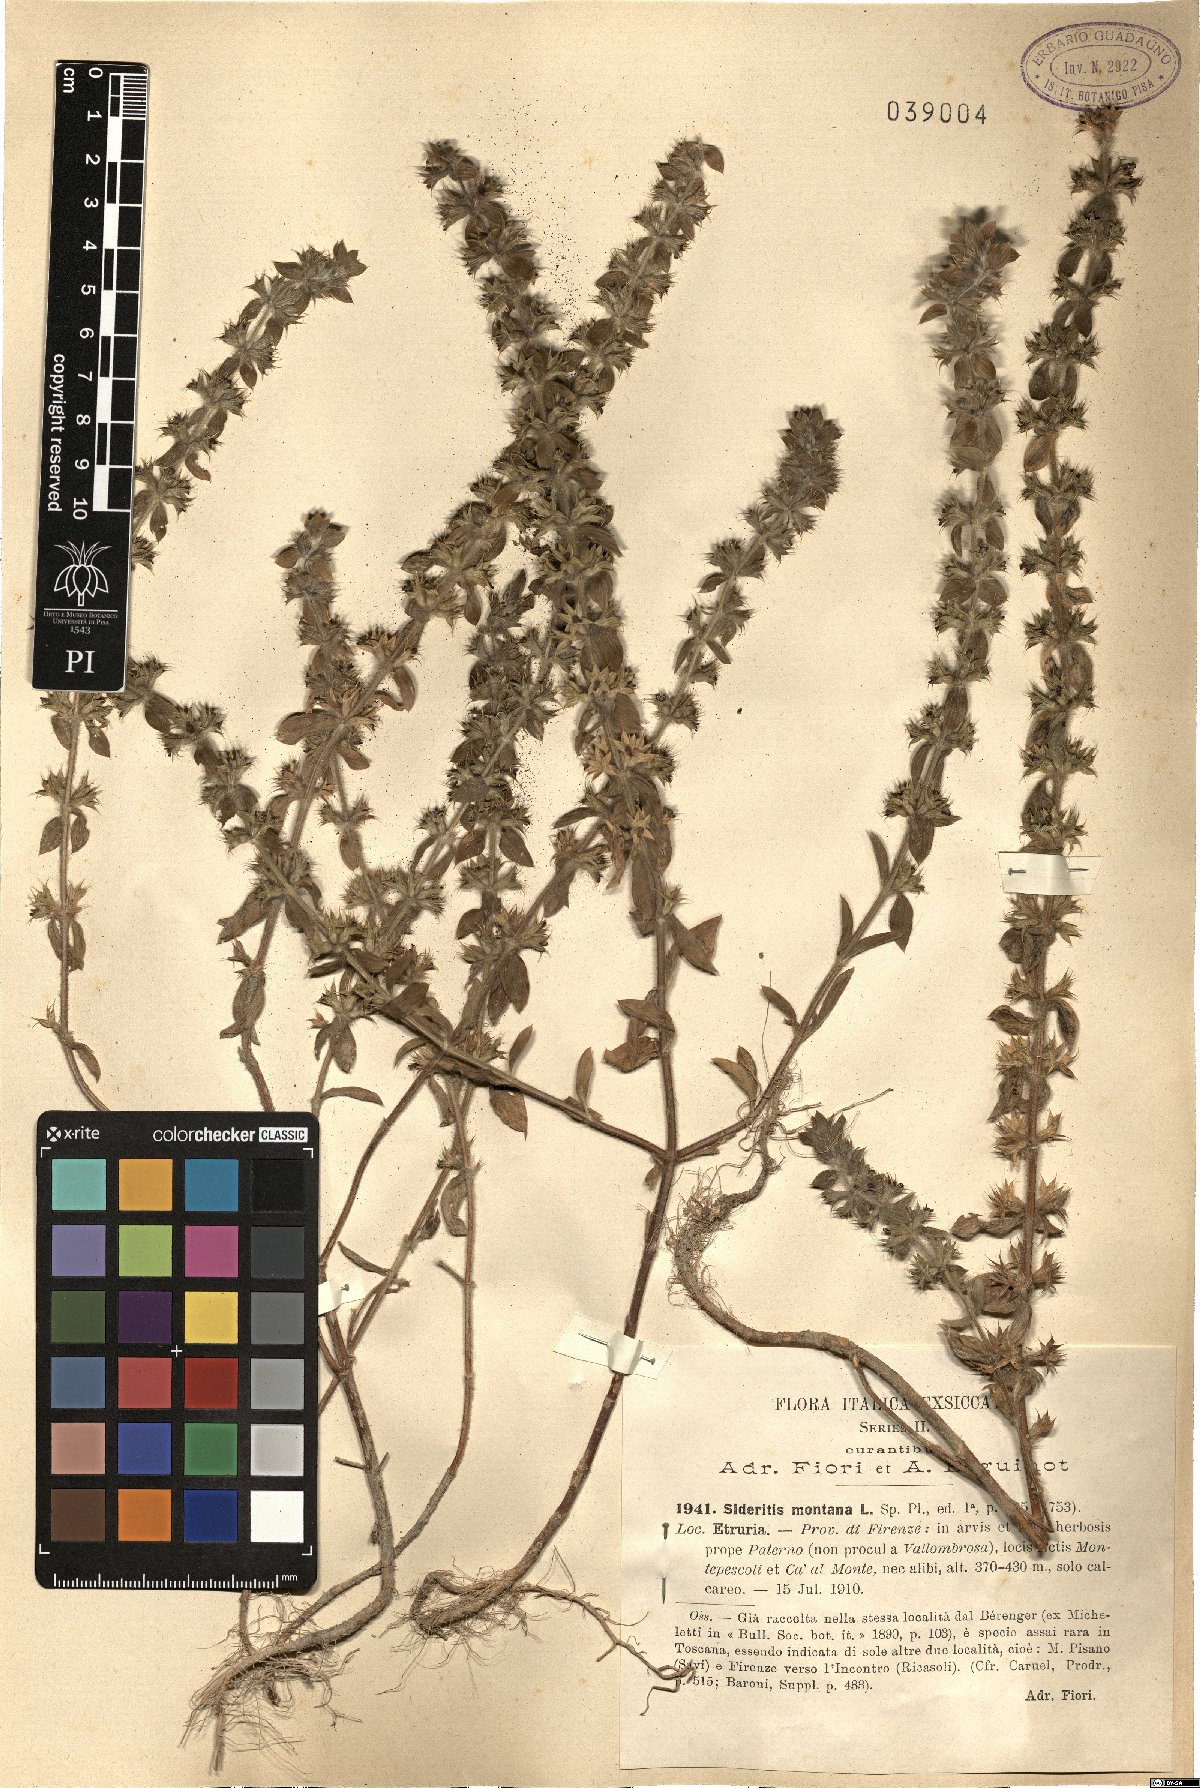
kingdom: Plantae
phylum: Tracheophyta
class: Magnoliopsida
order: Lamiales
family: Lamiaceae
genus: Sideritis
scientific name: Sideritis montana
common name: Mountain ironwort
